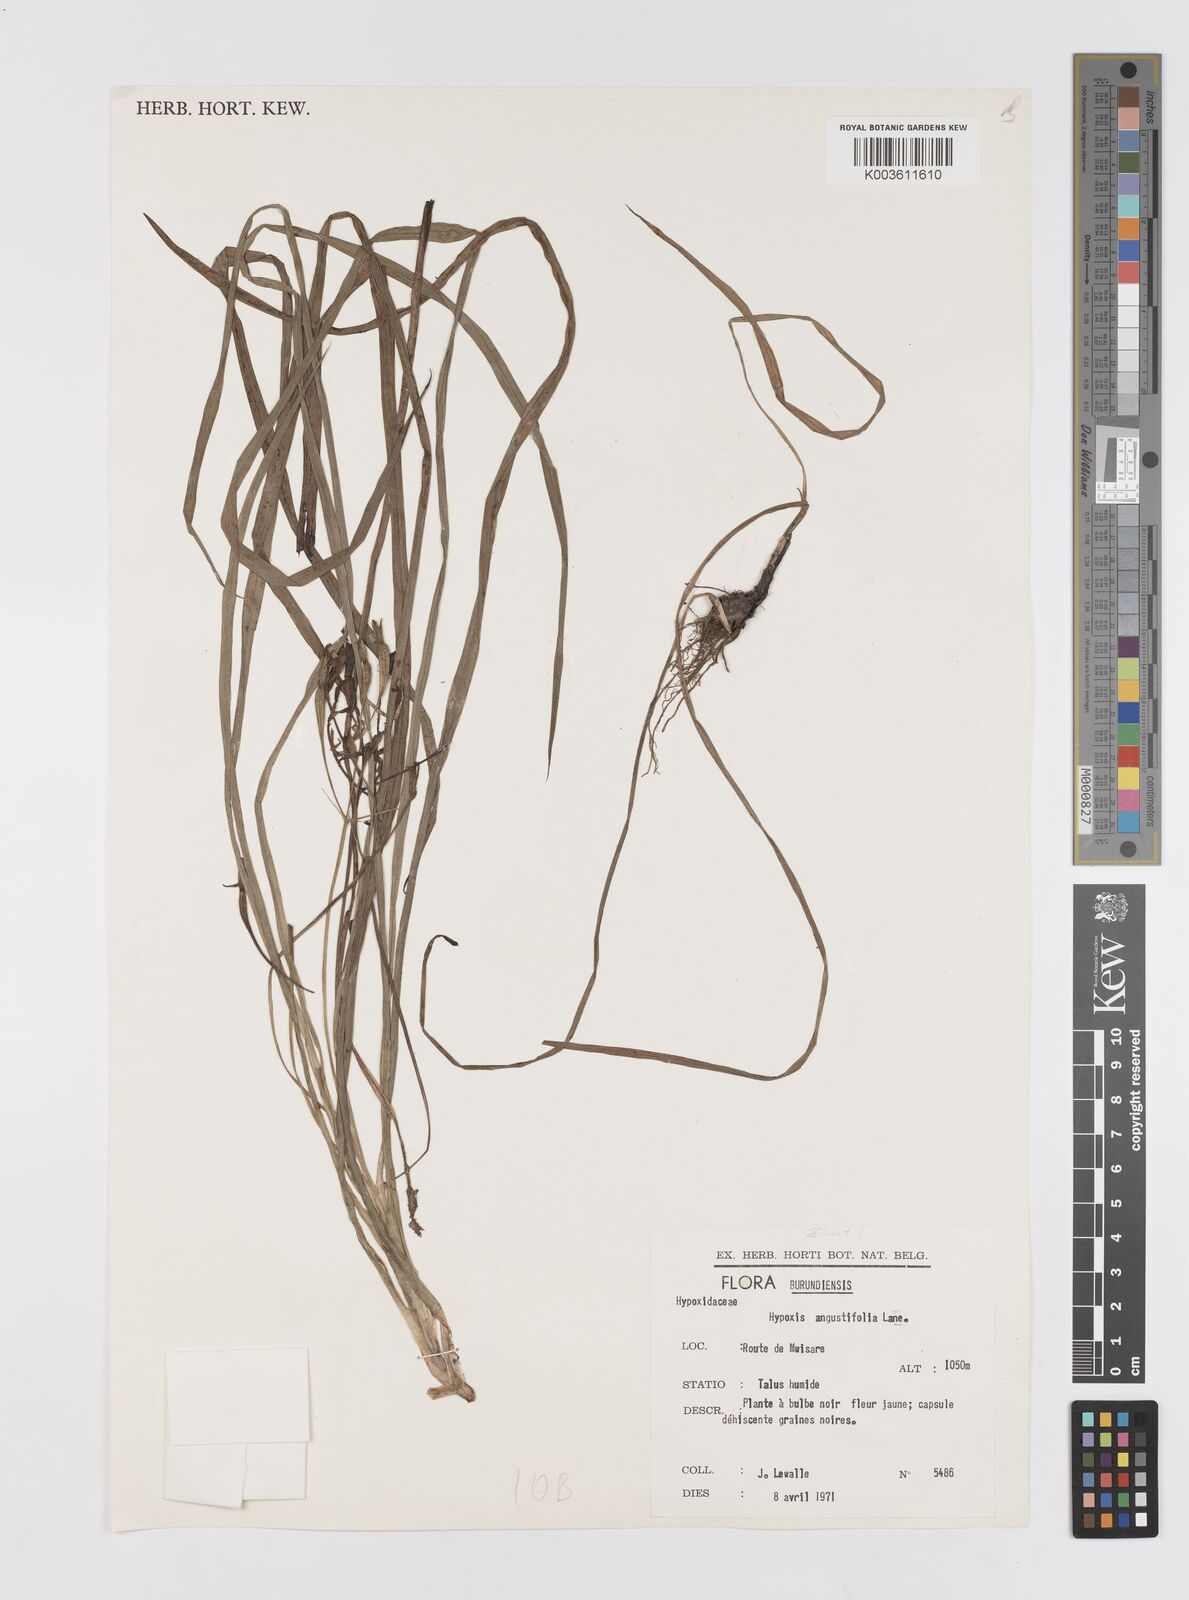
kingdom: Plantae
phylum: Tracheophyta
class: Liliopsida
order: Asparagales
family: Hypoxidaceae
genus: Hypoxis
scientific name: Hypoxis angustifolia
